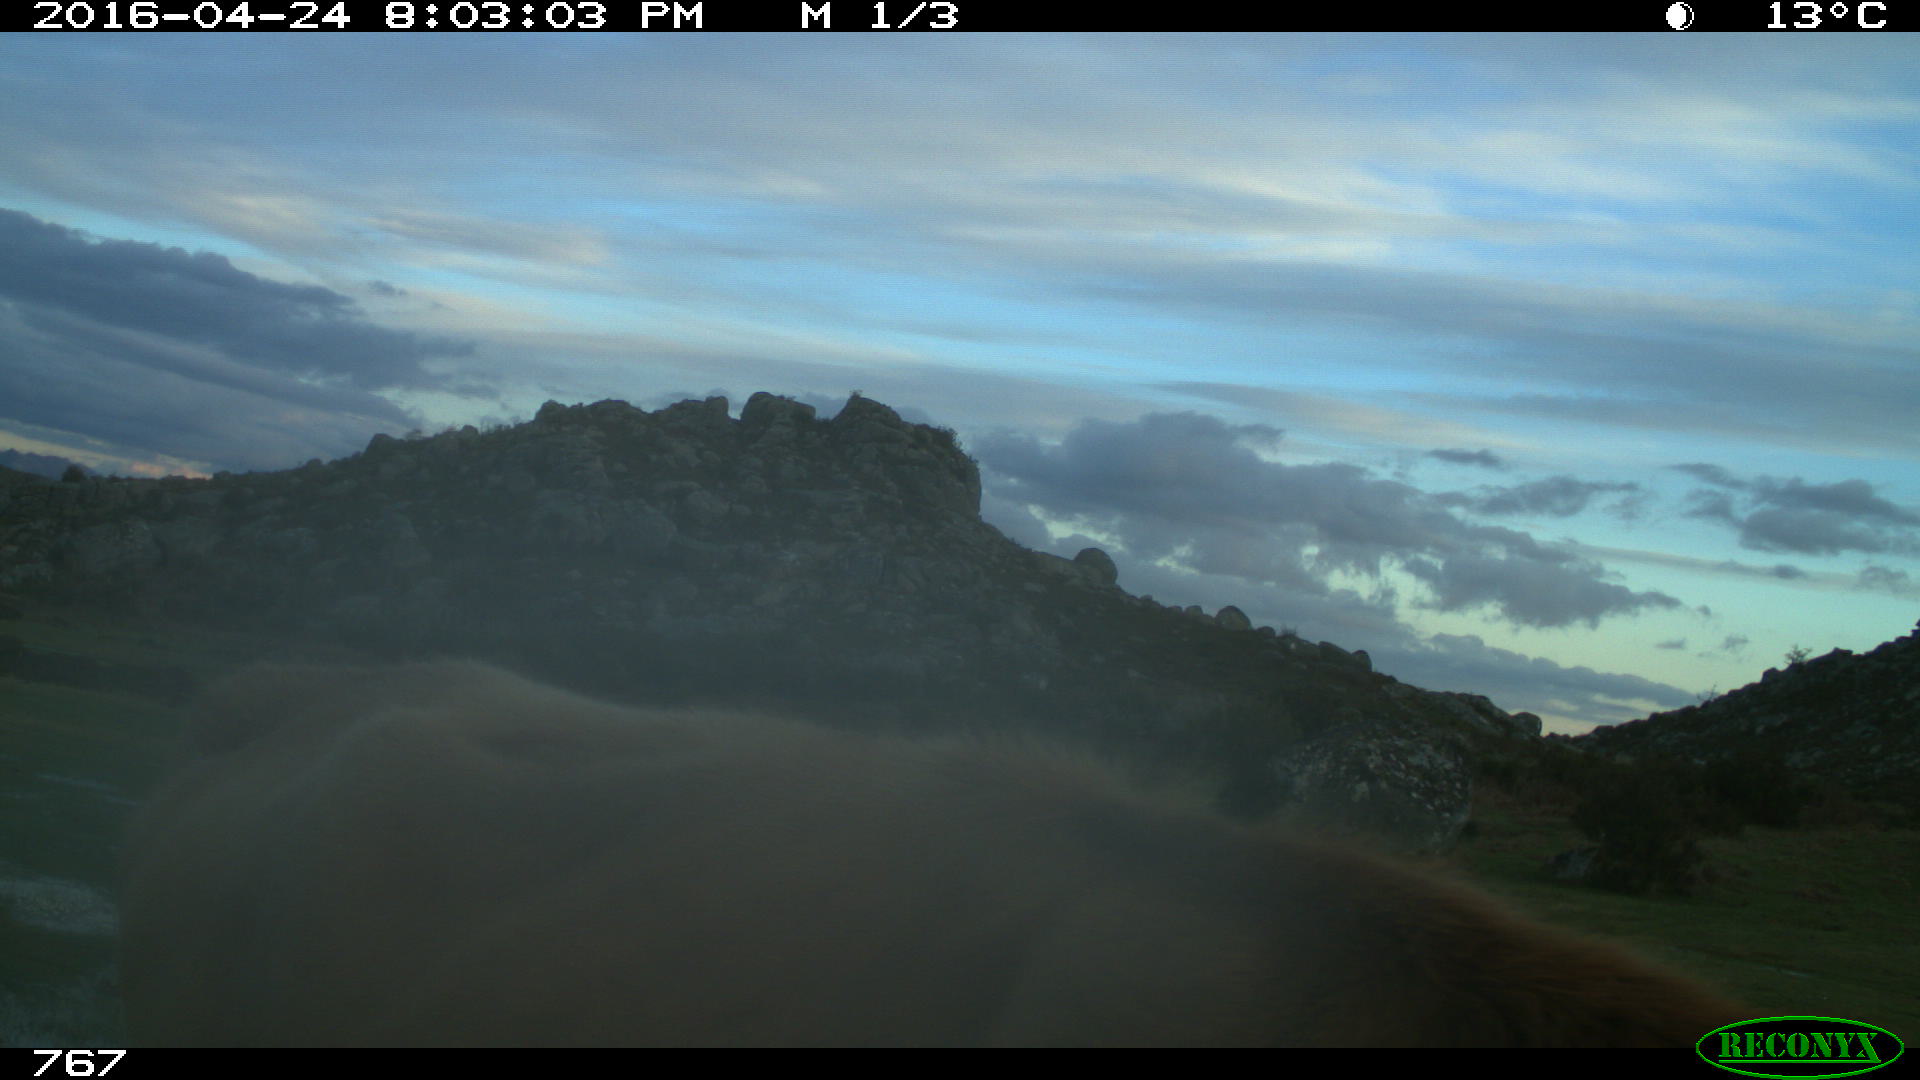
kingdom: Animalia
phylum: Chordata
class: Mammalia
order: Artiodactyla
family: Bovidae
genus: Bos
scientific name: Bos taurus
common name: Domesticated cattle
